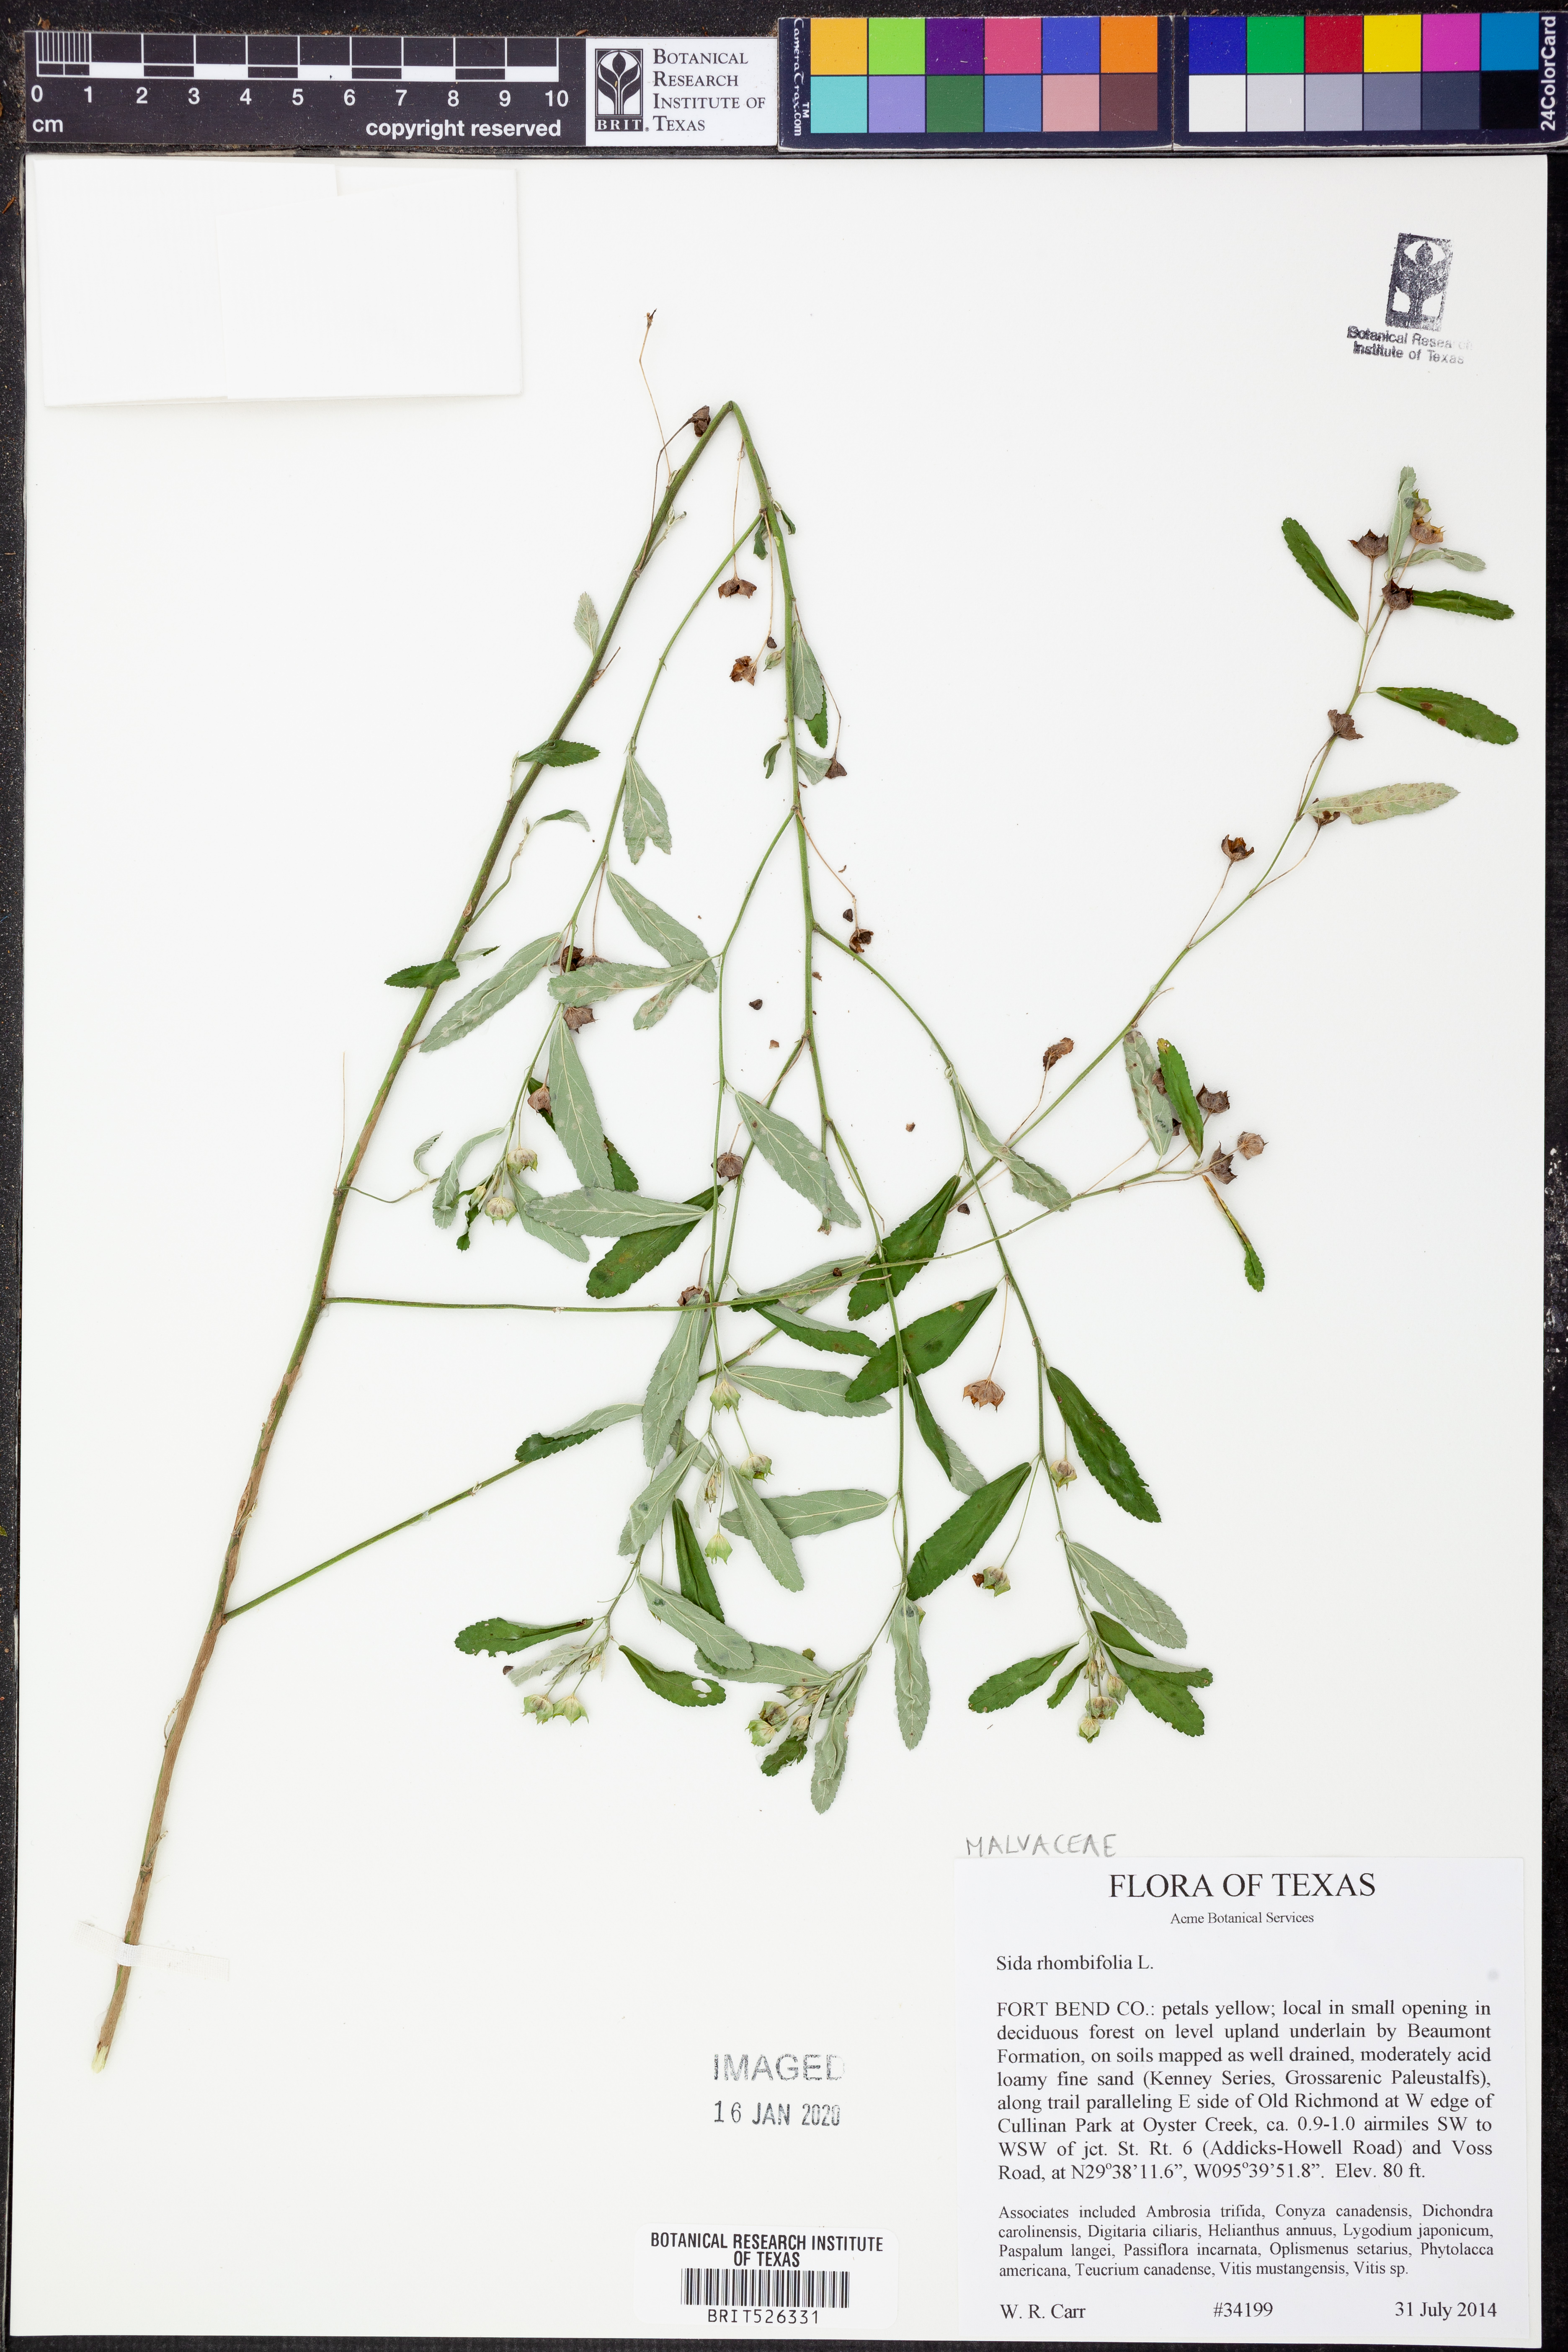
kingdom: Plantae
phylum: Tracheophyta
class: Magnoliopsida
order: Malvales
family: Malvaceae
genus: Sida
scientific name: Sida rhombifolia
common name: Queensland-hemp
